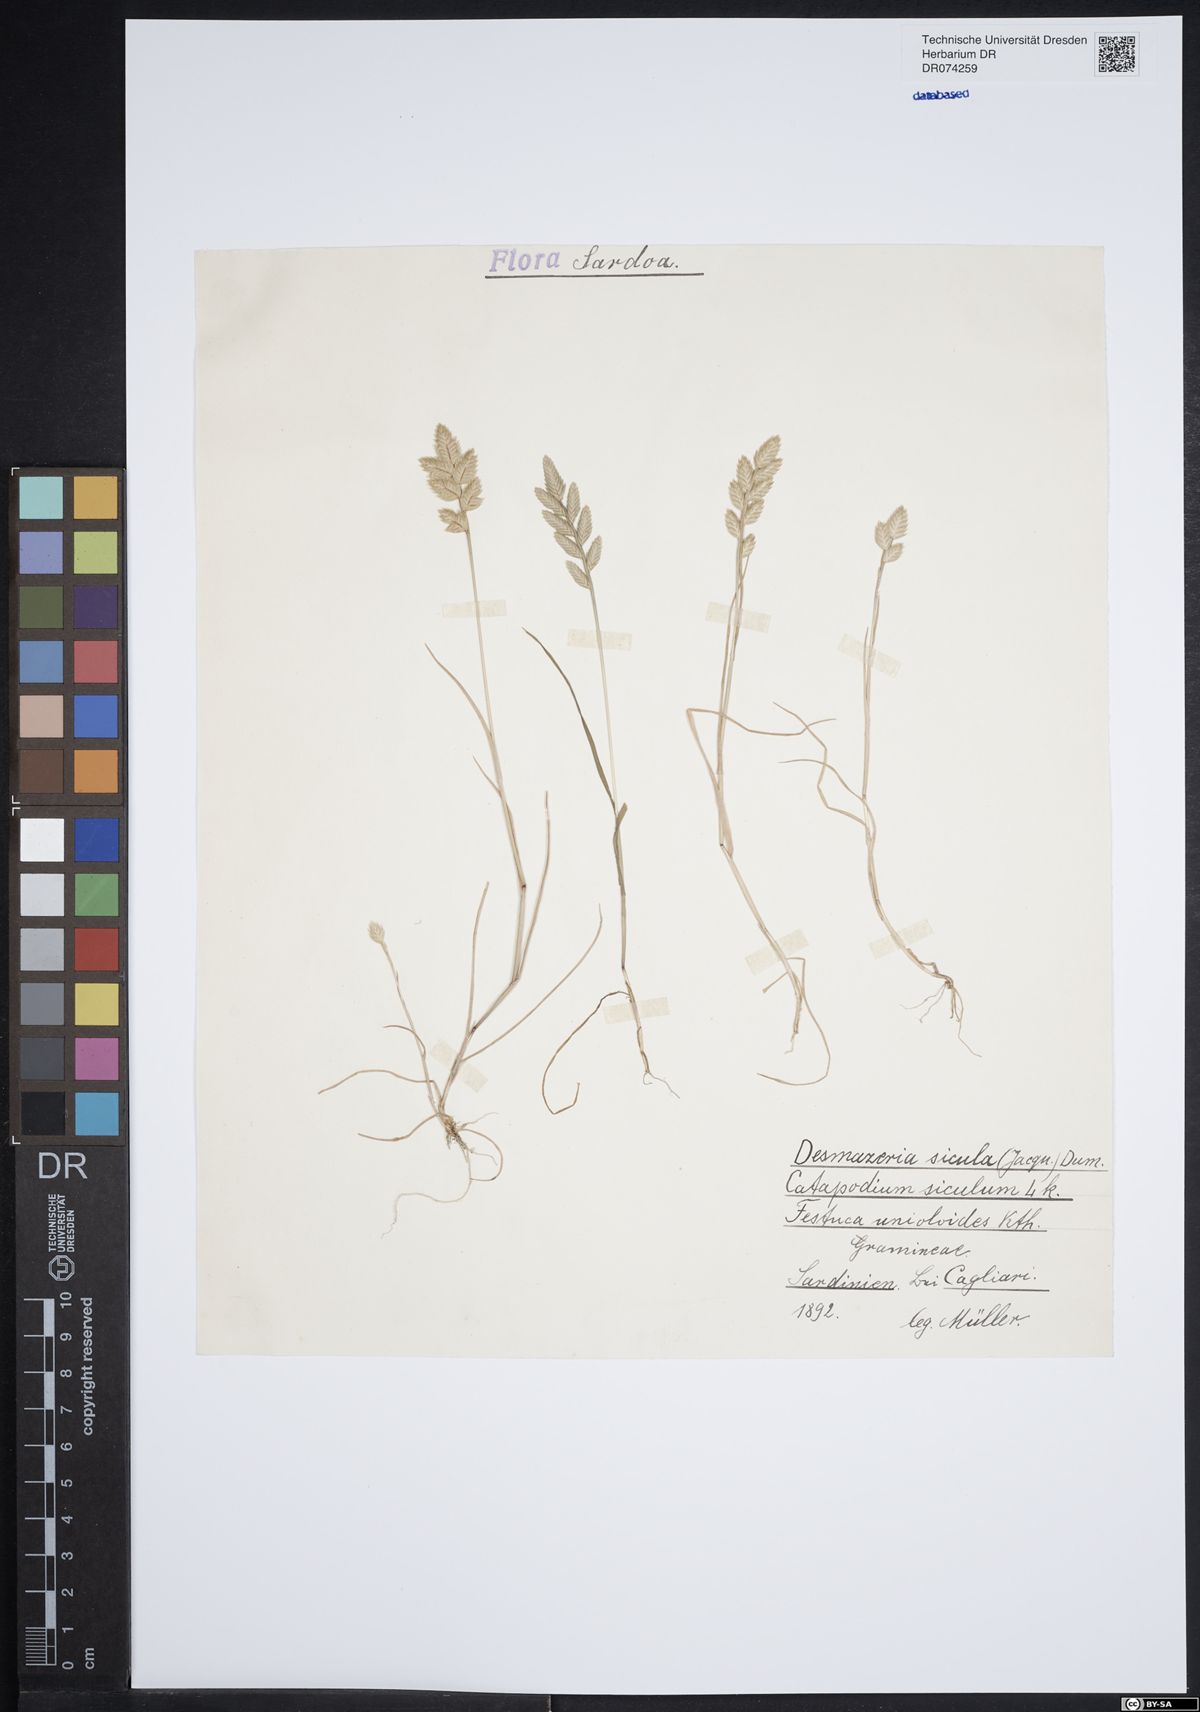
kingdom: Plantae
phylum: Tracheophyta
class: Liliopsida
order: Poales
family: Poaceae
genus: Desmazeria
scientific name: Desmazeria sicula
